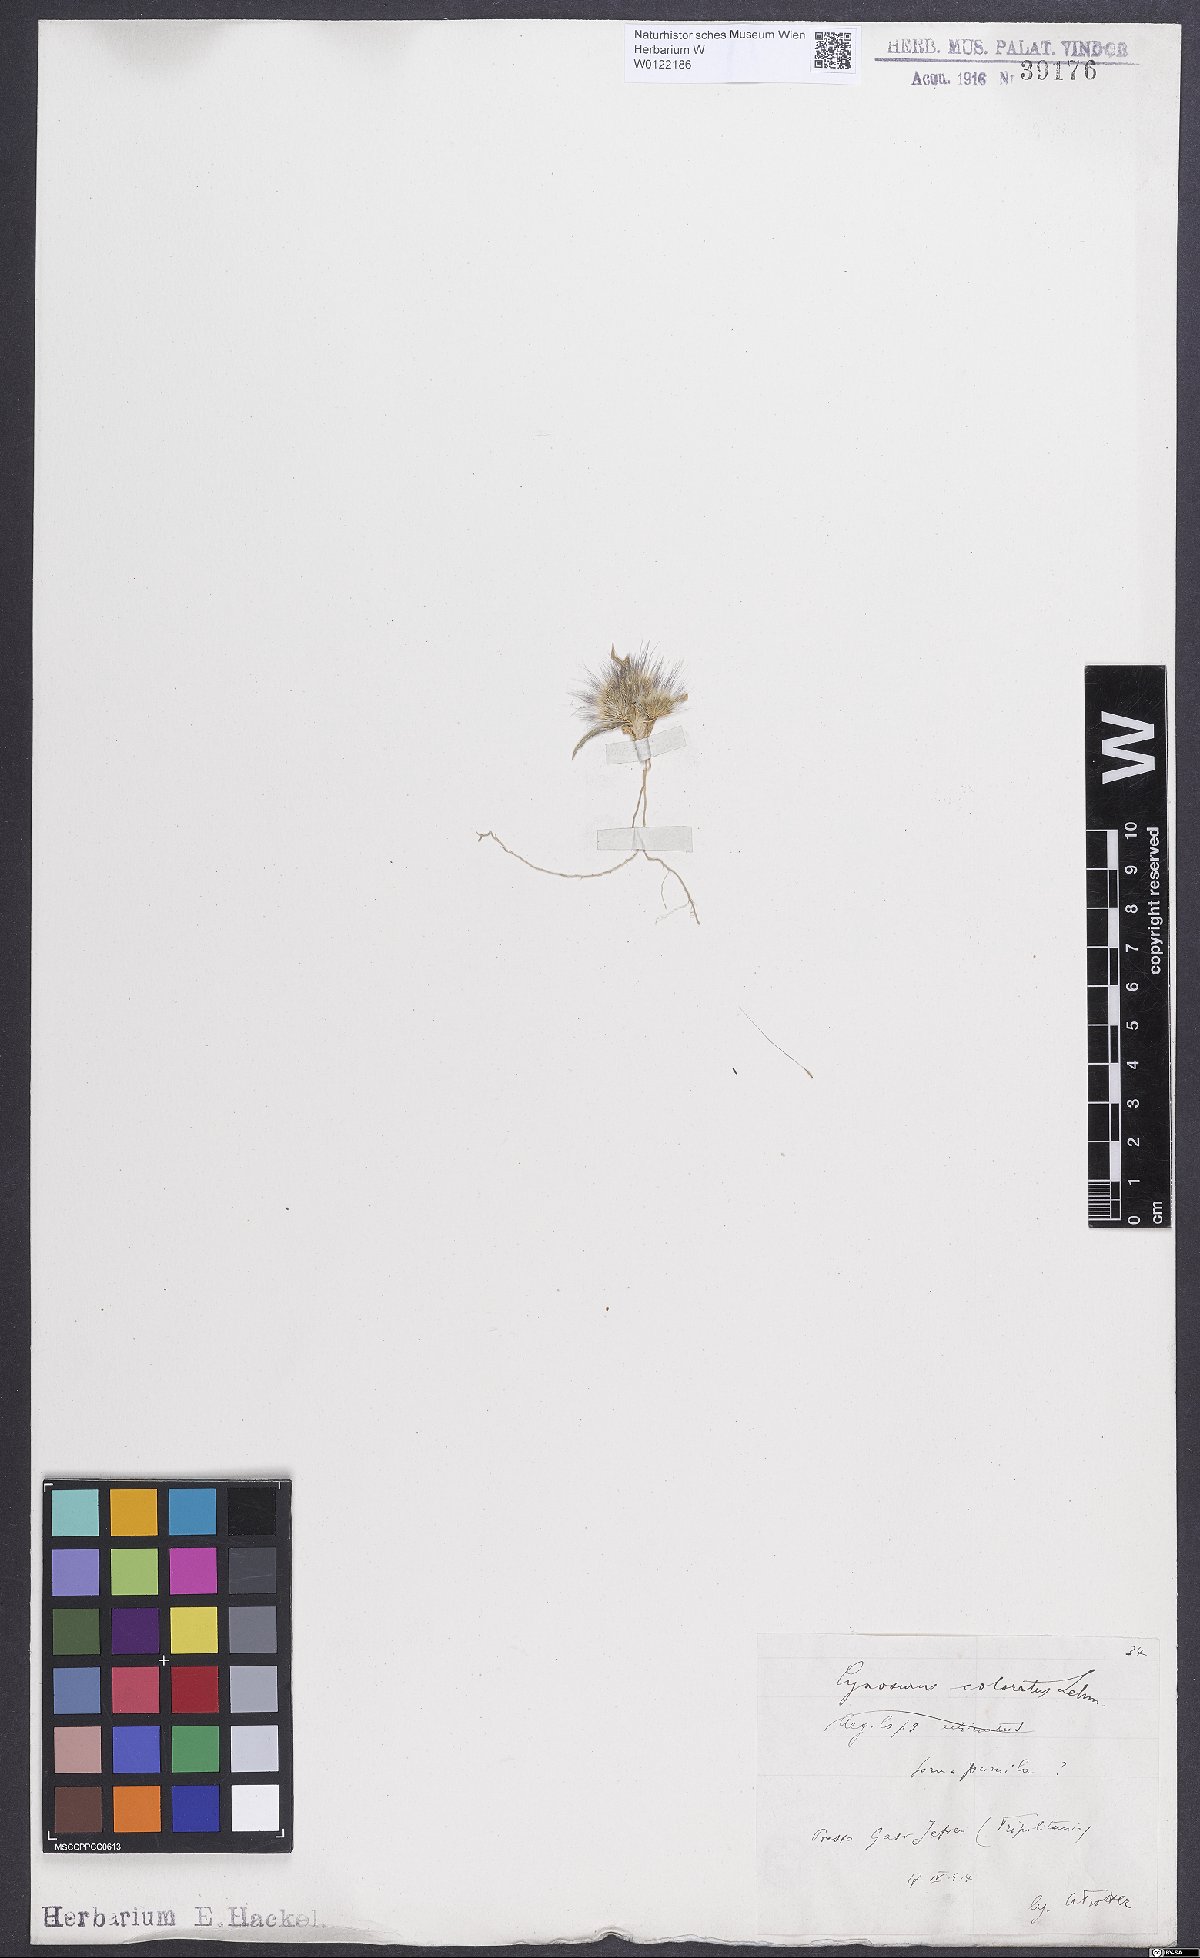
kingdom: Plantae
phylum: Tracheophyta
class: Liliopsida
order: Poales
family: Poaceae
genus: Cynosurus
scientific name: Cynosurus coloratus
